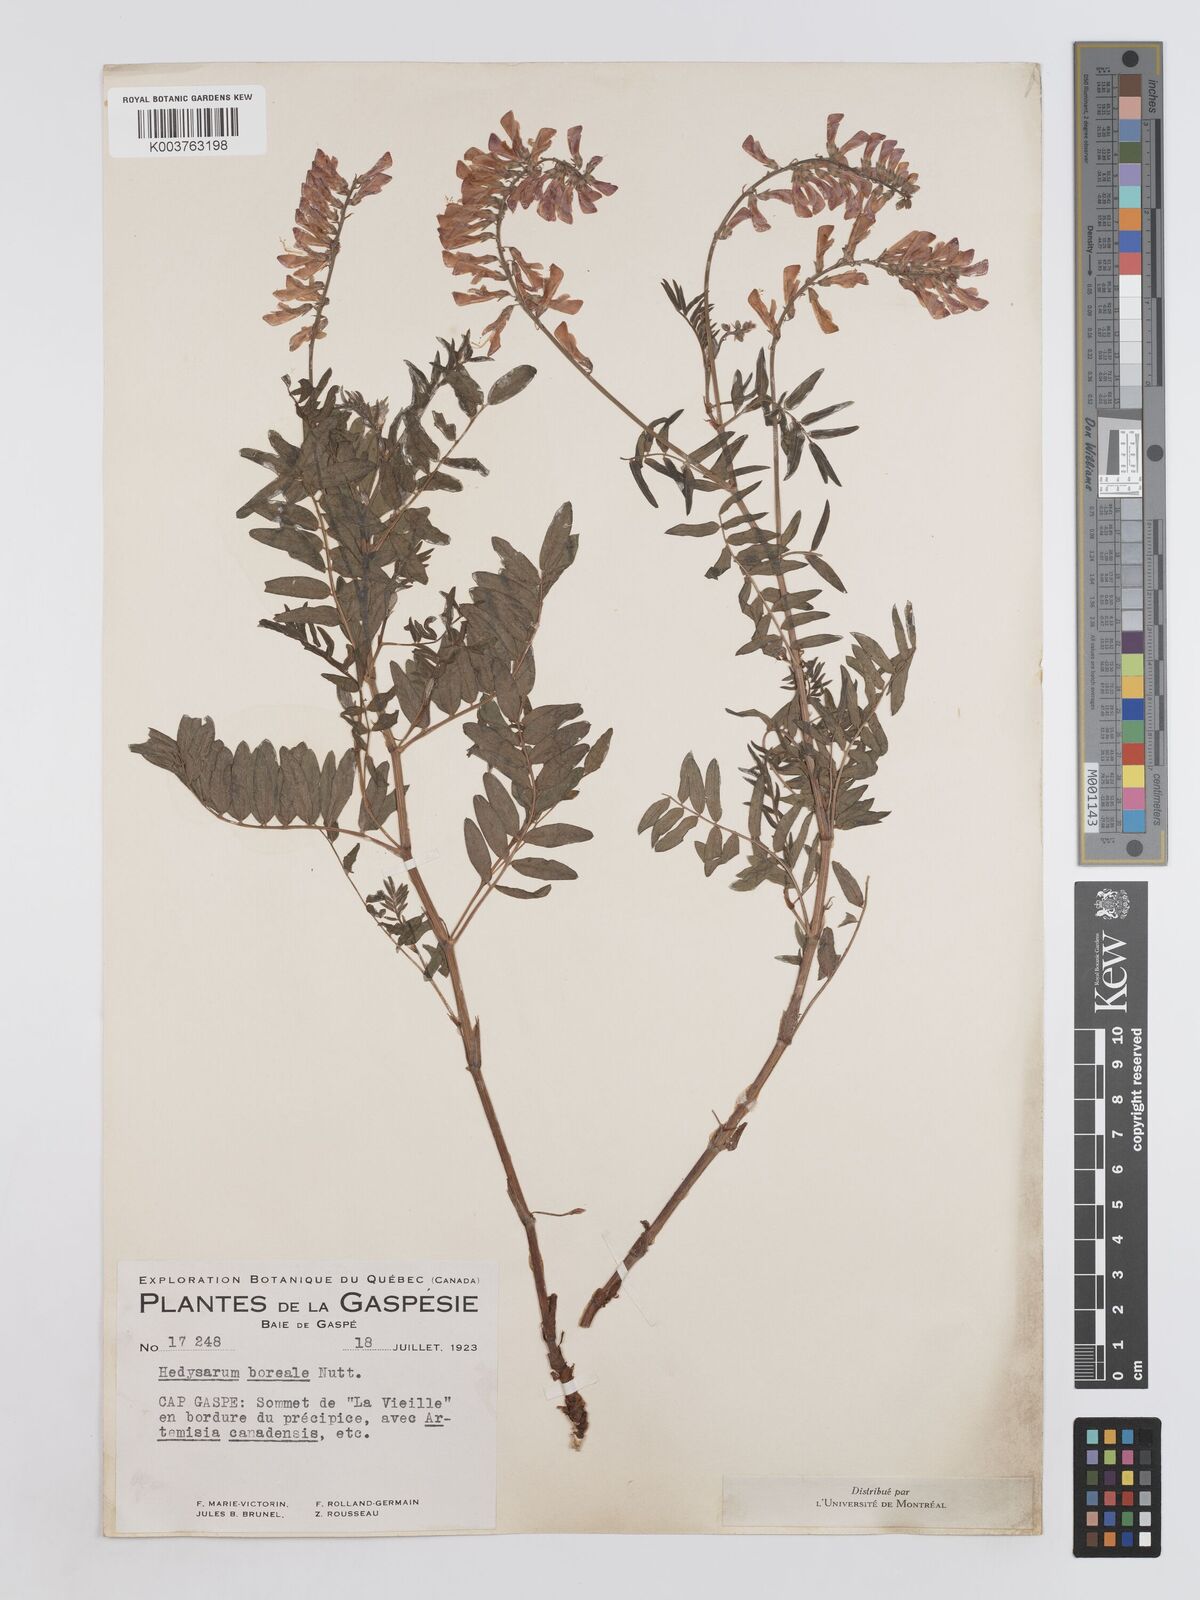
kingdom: Plantae
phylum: Tracheophyta
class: Magnoliopsida
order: Fabales
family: Fabaceae
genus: Hedysarum
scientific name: Hedysarum boreale
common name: Northern sweet-vetch
